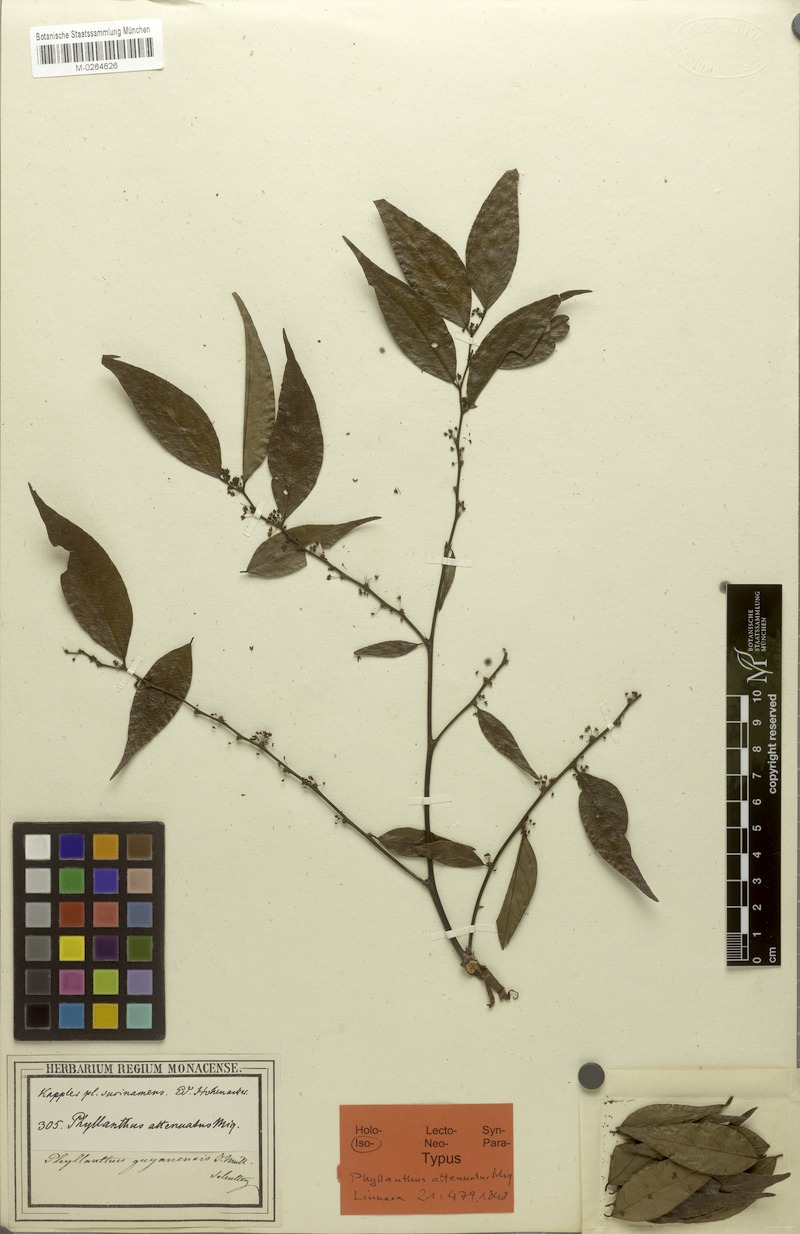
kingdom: Plantae
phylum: Tracheophyta
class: Magnoliopsida
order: Malpighiales
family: Phyllanthaceae
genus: Phyllanthus
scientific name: Phyllanthus attenuatus
